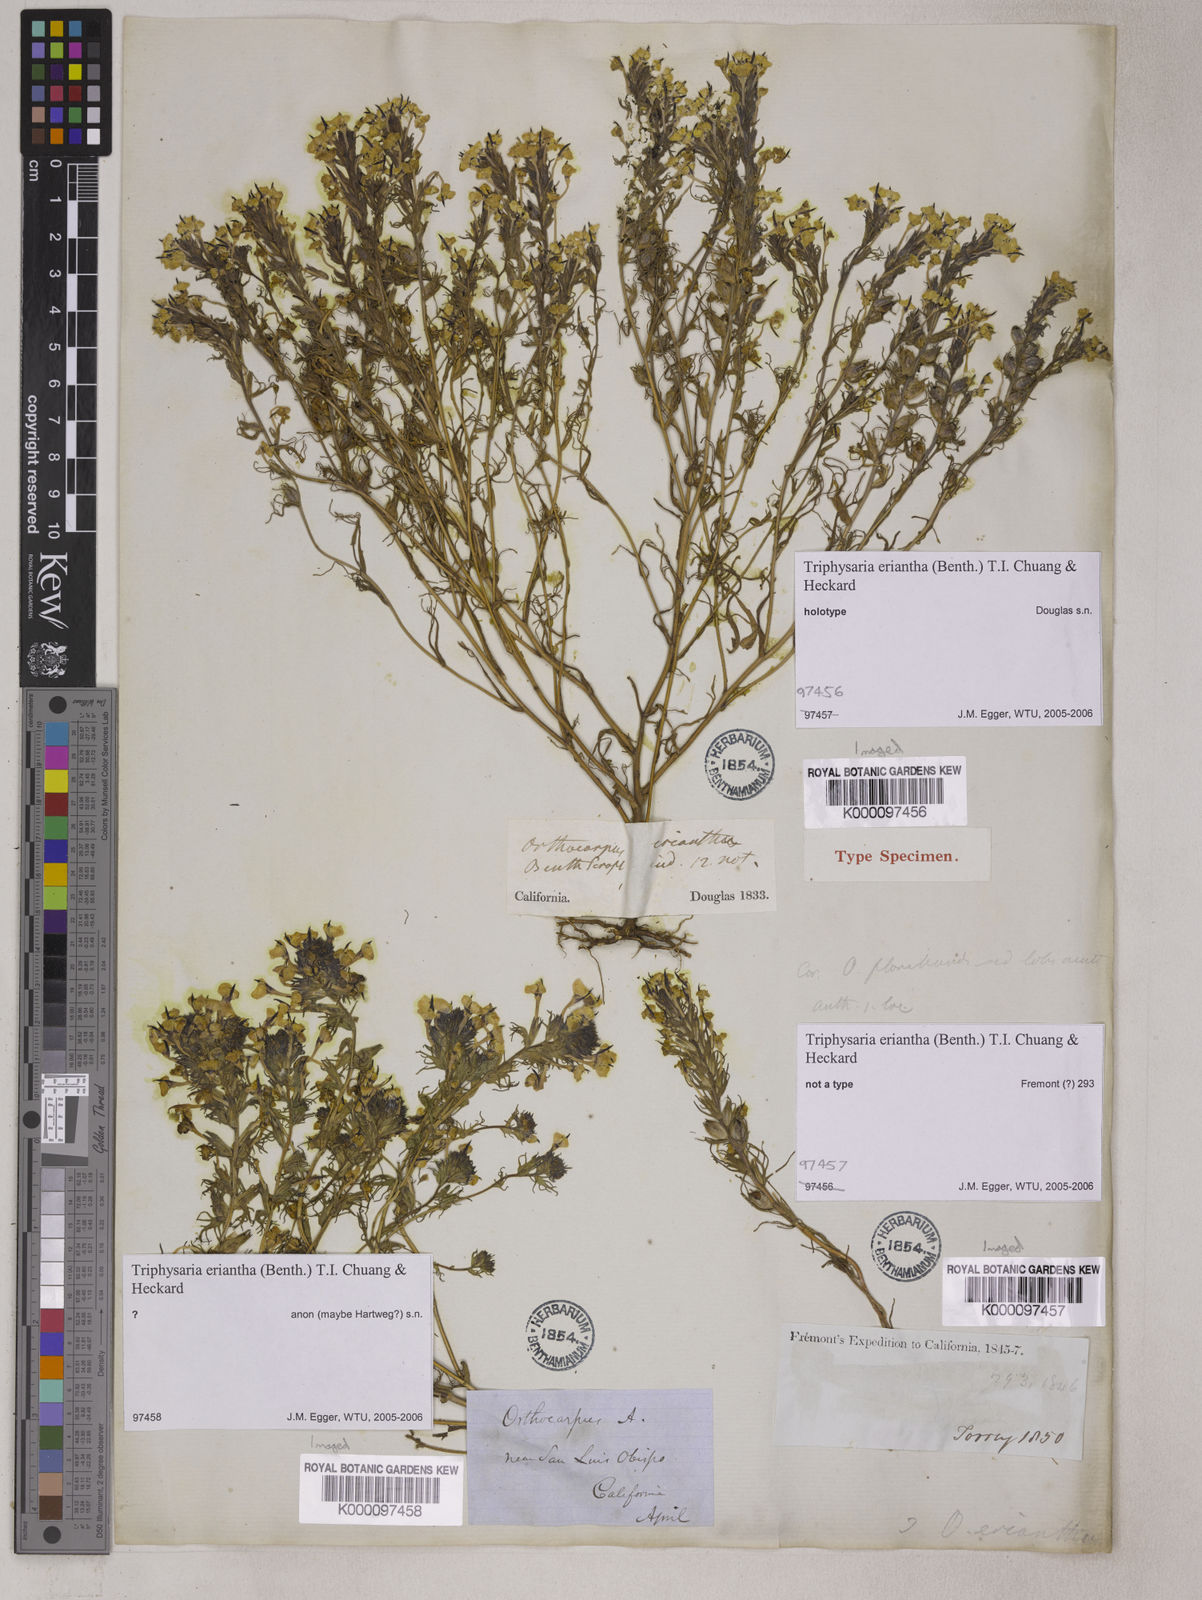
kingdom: Plantae
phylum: Tracheophyta
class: Magnoliopsida
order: Lamiales
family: Orobanchaceae
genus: Triphysaria
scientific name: Triphysaria eriantha
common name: Johnny-tuck
